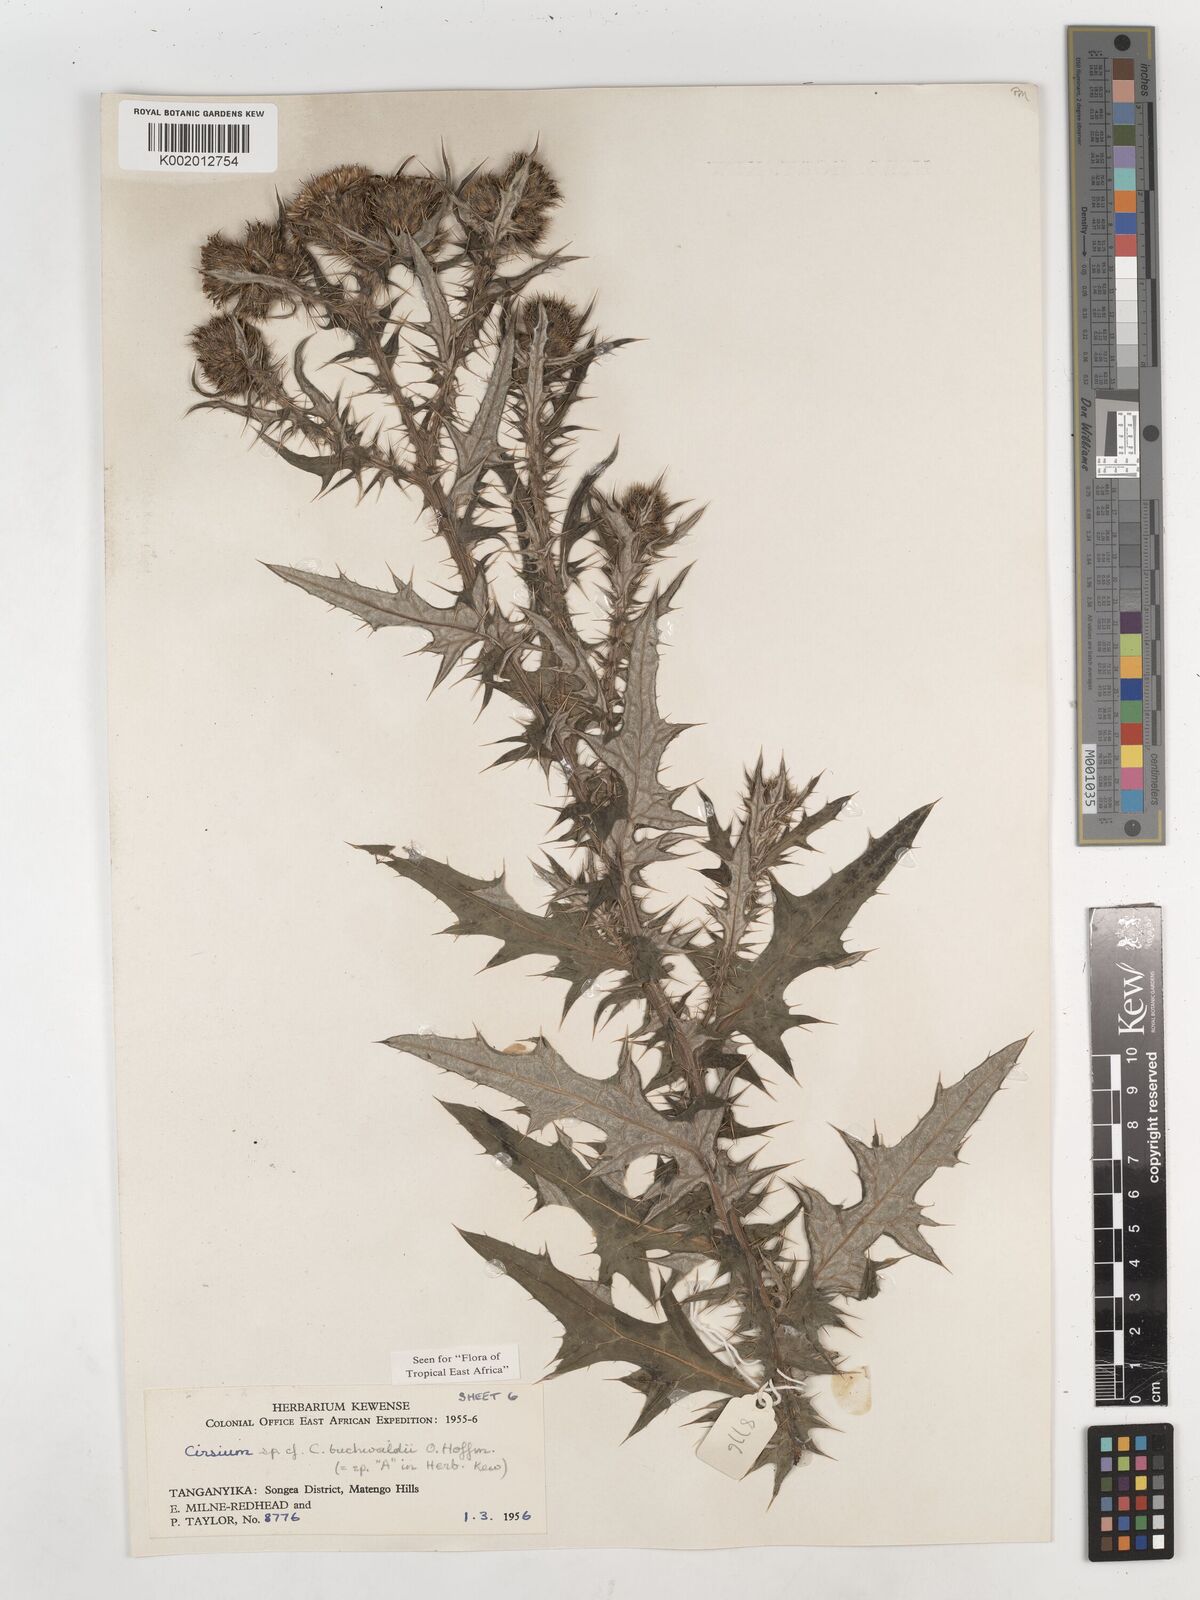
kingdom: Plantae
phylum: Tracheophyta
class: Magnoliopsida
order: Asterales
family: Asteraceae
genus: Cirsium
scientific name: Cirsium buchwaldii
